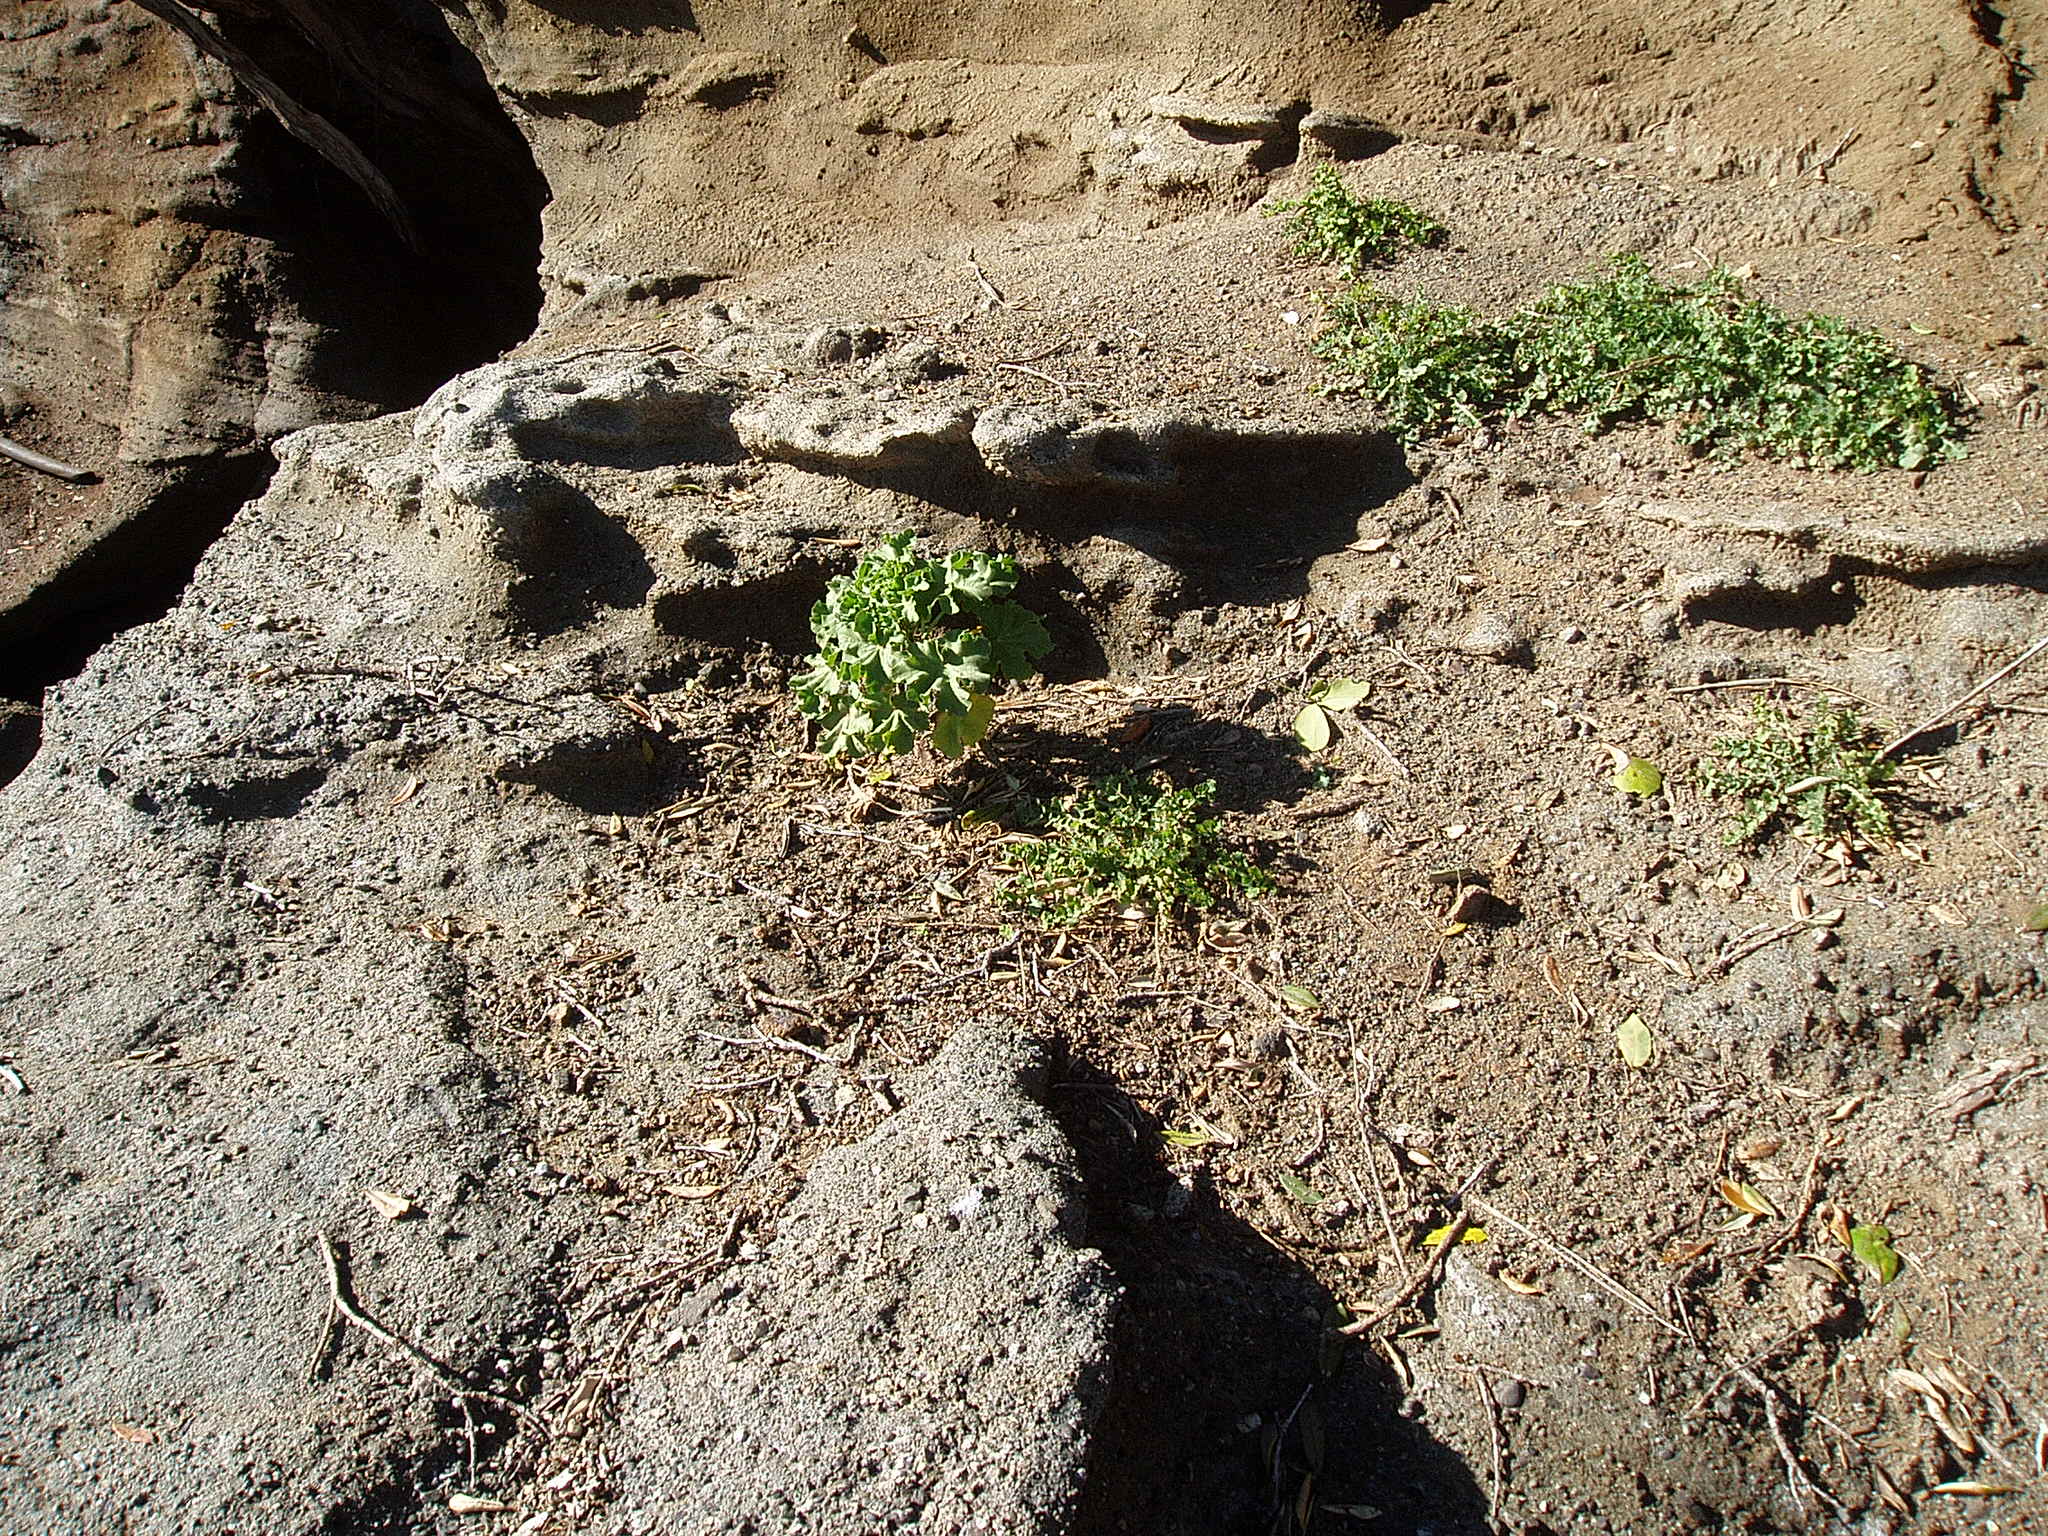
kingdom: Plantae
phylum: Tracheophyta
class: Magnoliopsida
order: Malvales
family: Malvaceae
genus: Malva
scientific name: Malva arborea
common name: Tree mallow
